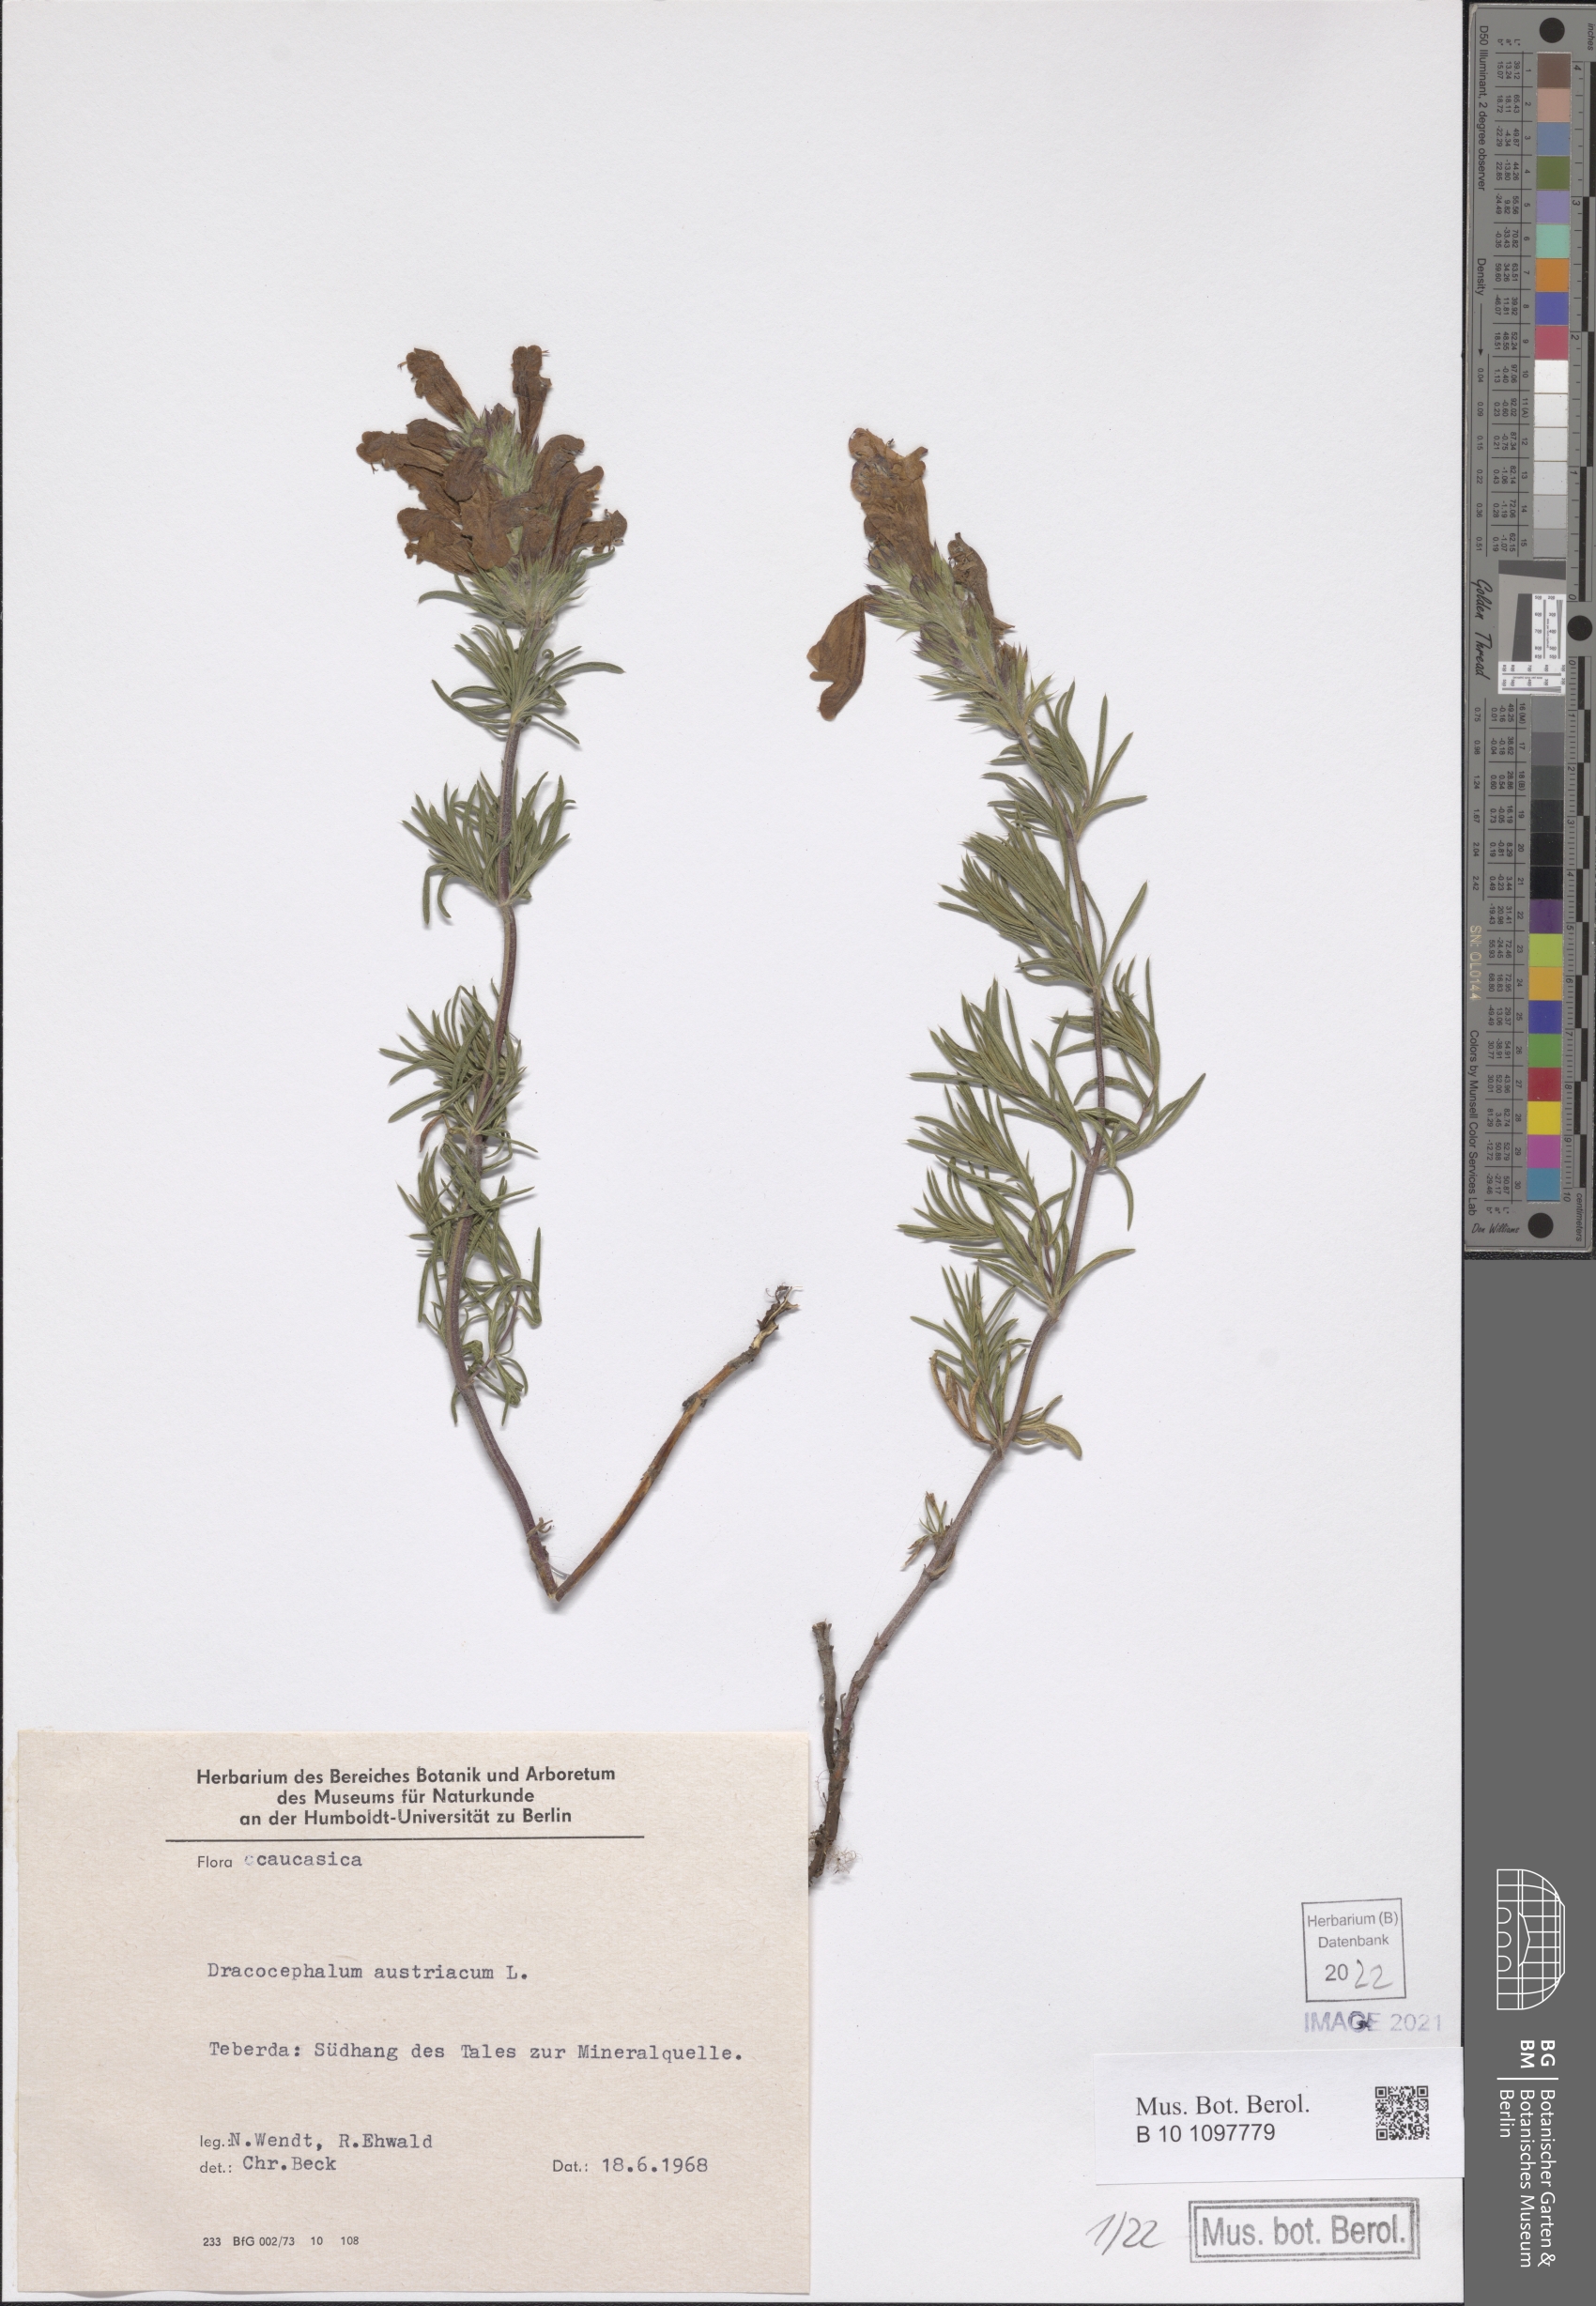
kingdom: Plantae
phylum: Tracheophyta
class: Magnoliopsida
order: Lamiales
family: Lamiaceae
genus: Dracocephalum
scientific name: Dracocephalum austriacum
